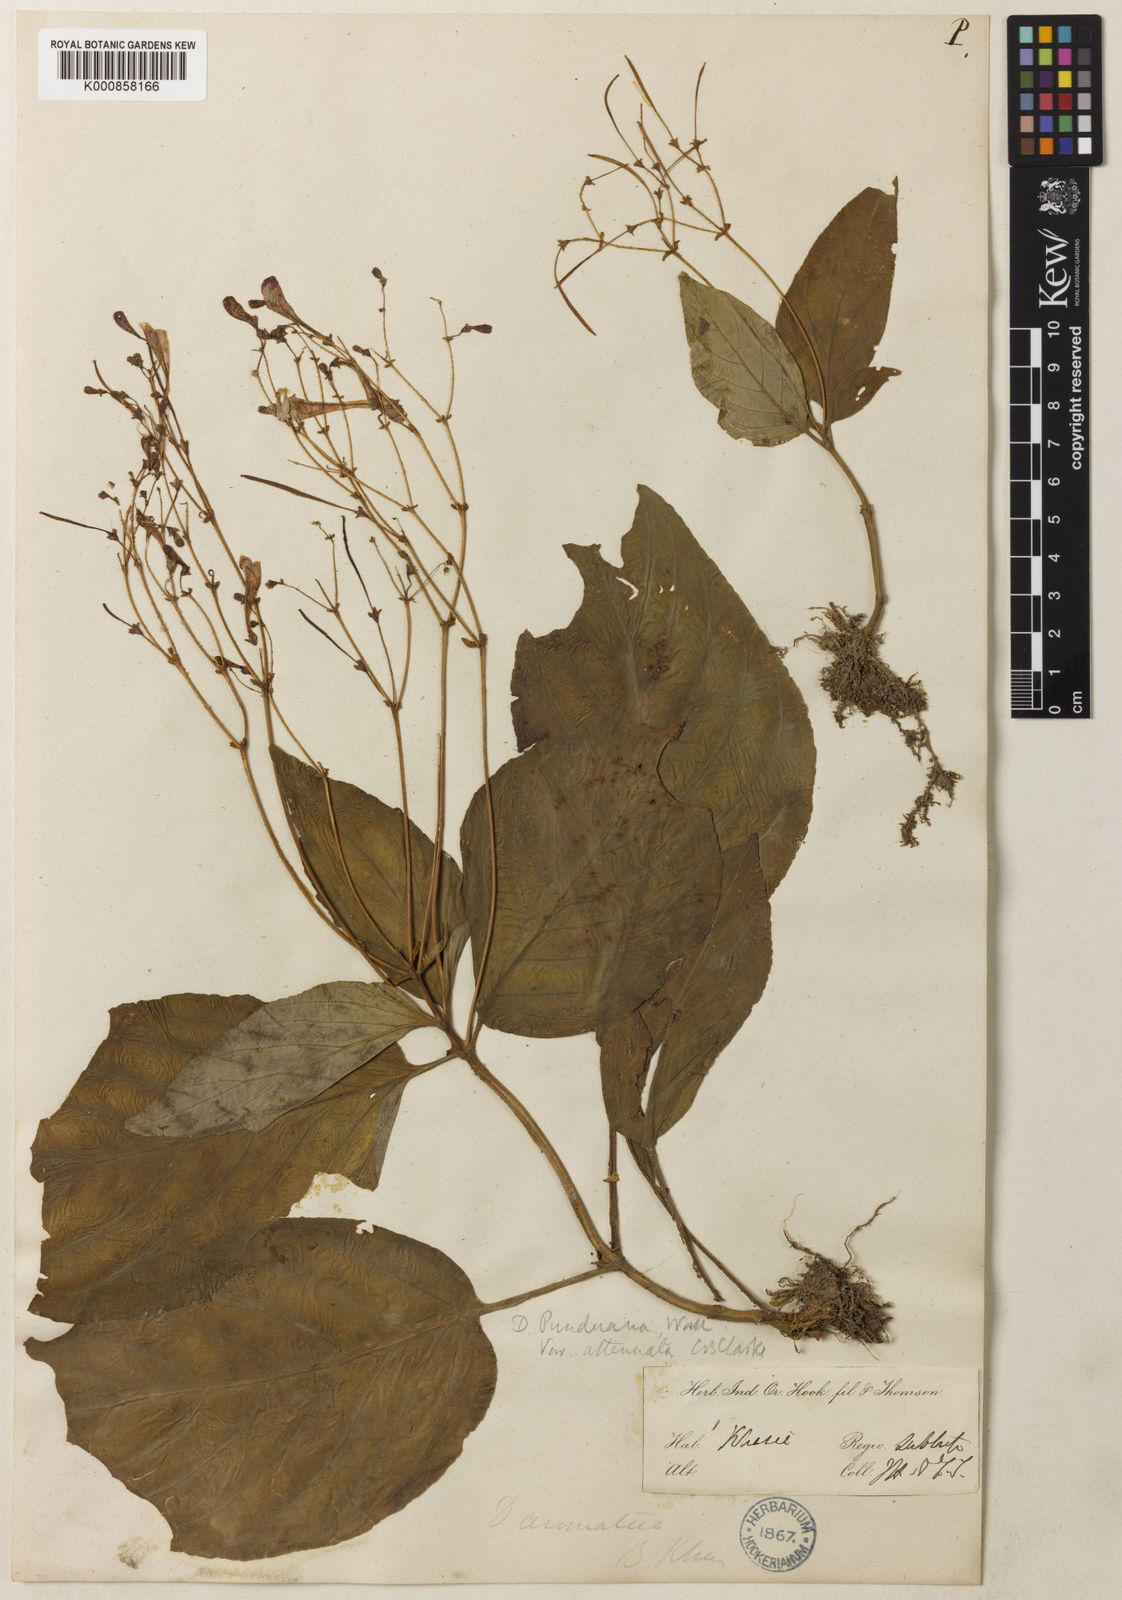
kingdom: Plantae
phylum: Tracheophyta
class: Magnoliopsida
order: Lamiales
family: Gesneriaceae
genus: Henckelia
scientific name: Henckelia
